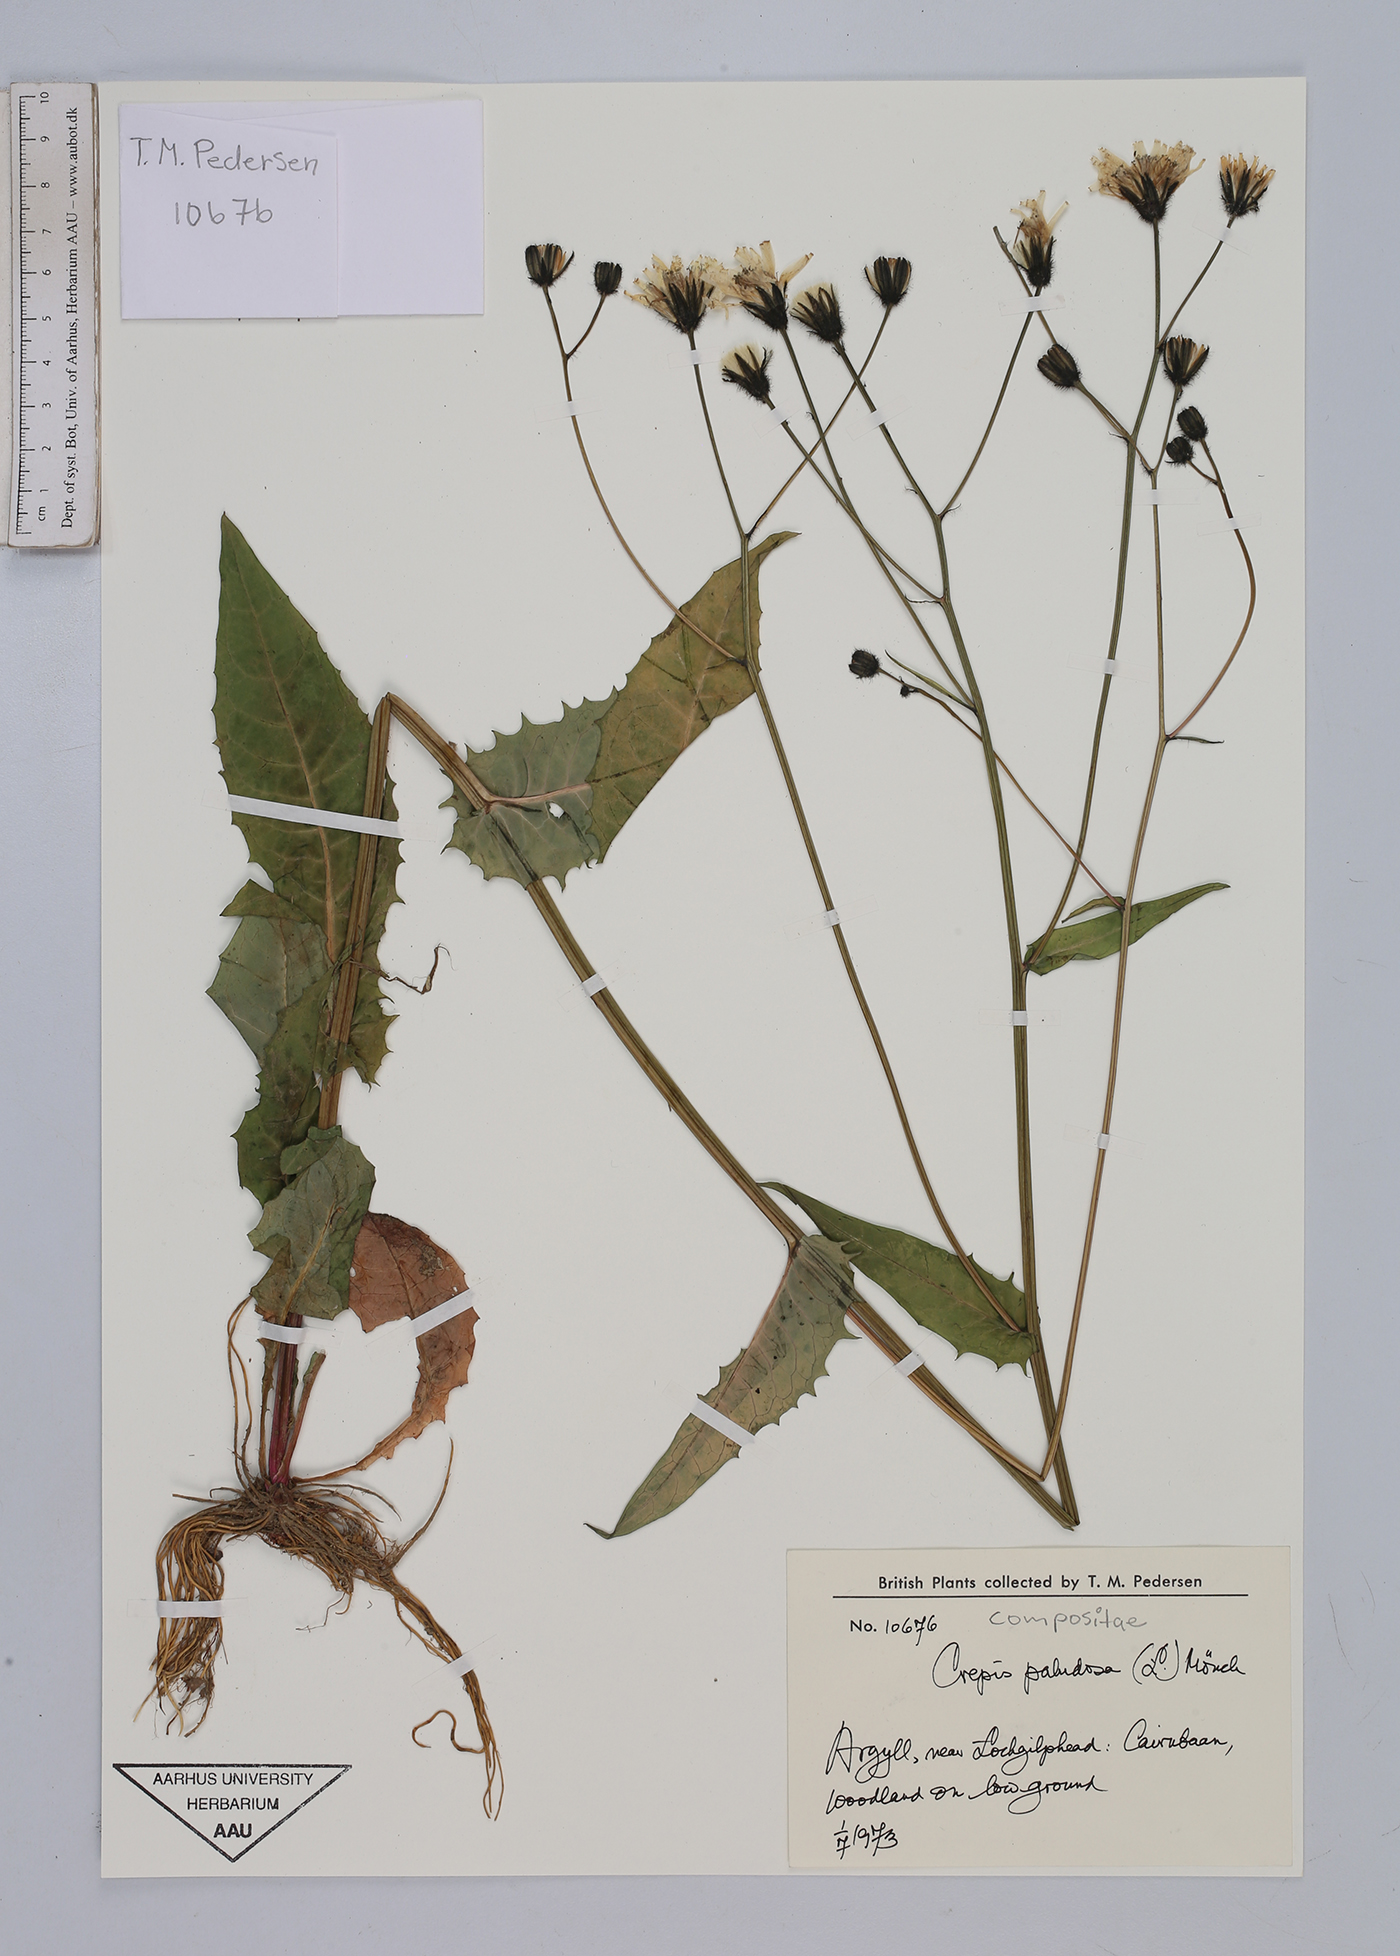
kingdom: Plantae
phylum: Tracheophyta
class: Magnoliopsida
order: Asterales
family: Asteraceae
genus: Crepis
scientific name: Crepis paludosa
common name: Marsh hawk's-beard
